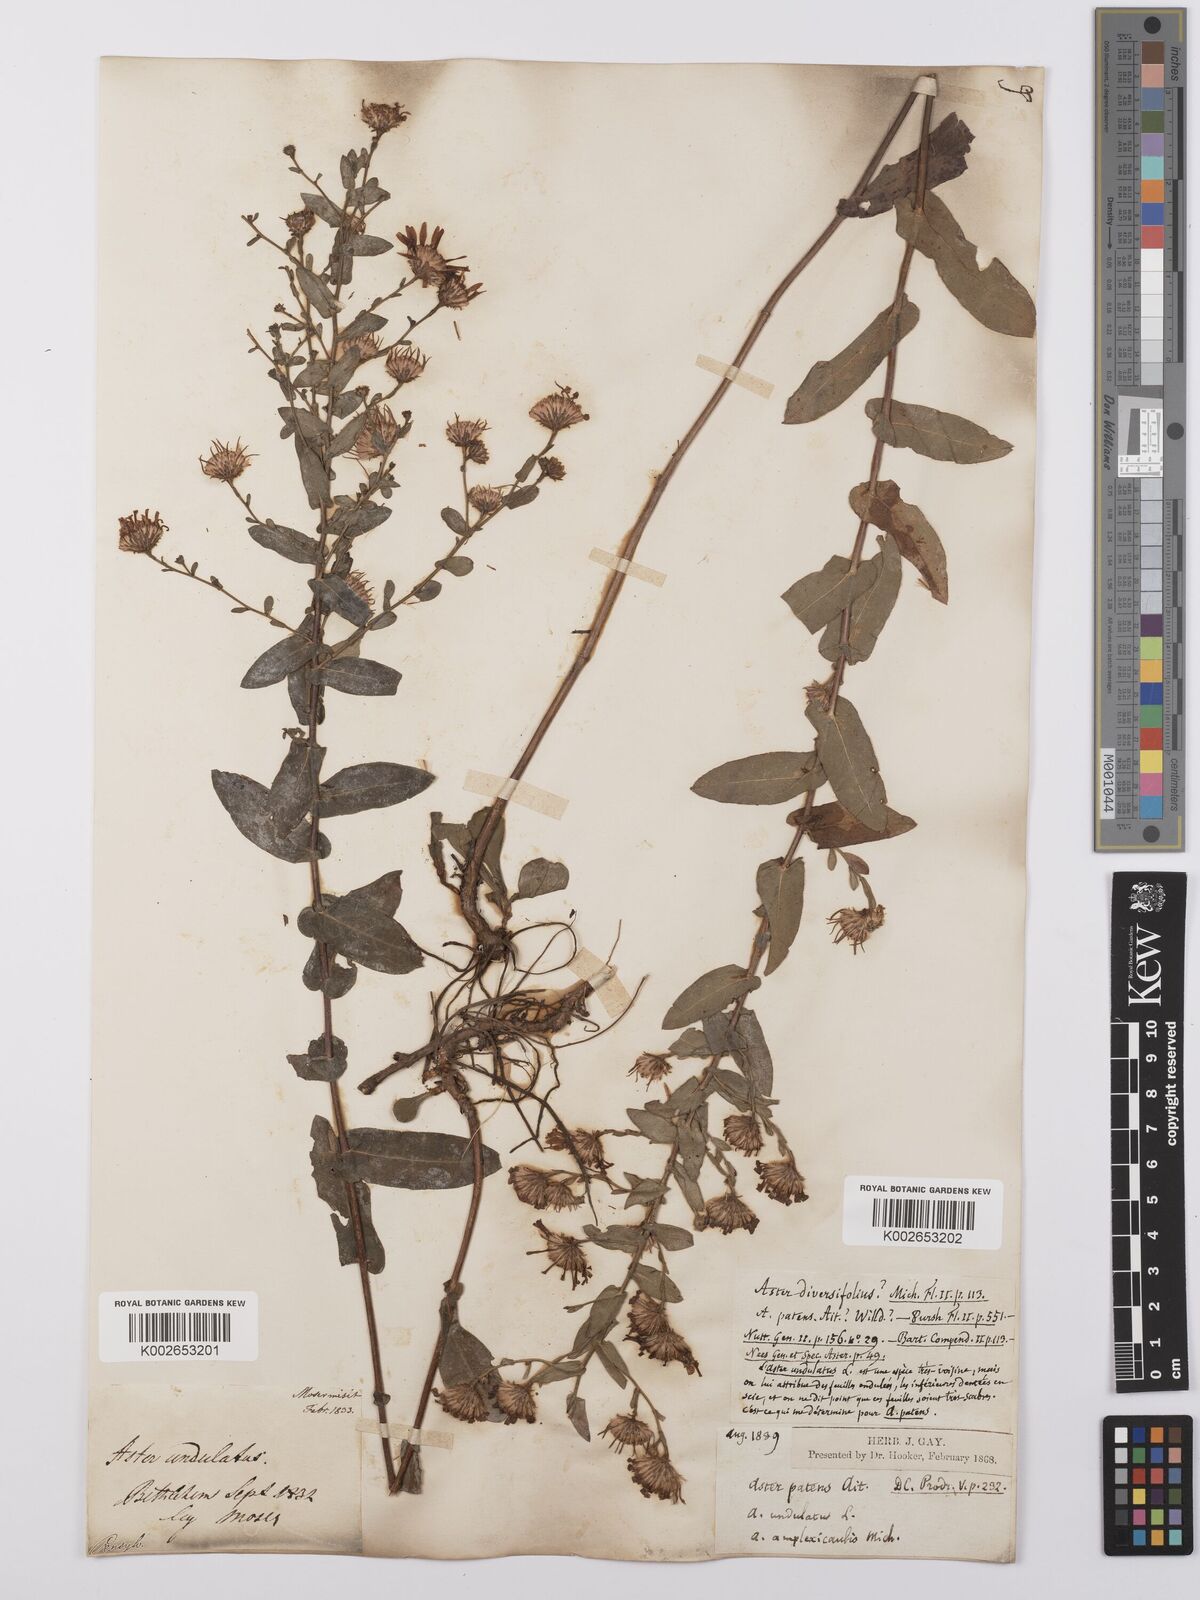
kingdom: Plantae
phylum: Tracheophyta
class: Magnoliopsida
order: Asterales
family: Asteraceae
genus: Symphyotrichum
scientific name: Symphyotrichum patens
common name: Late purple aster
